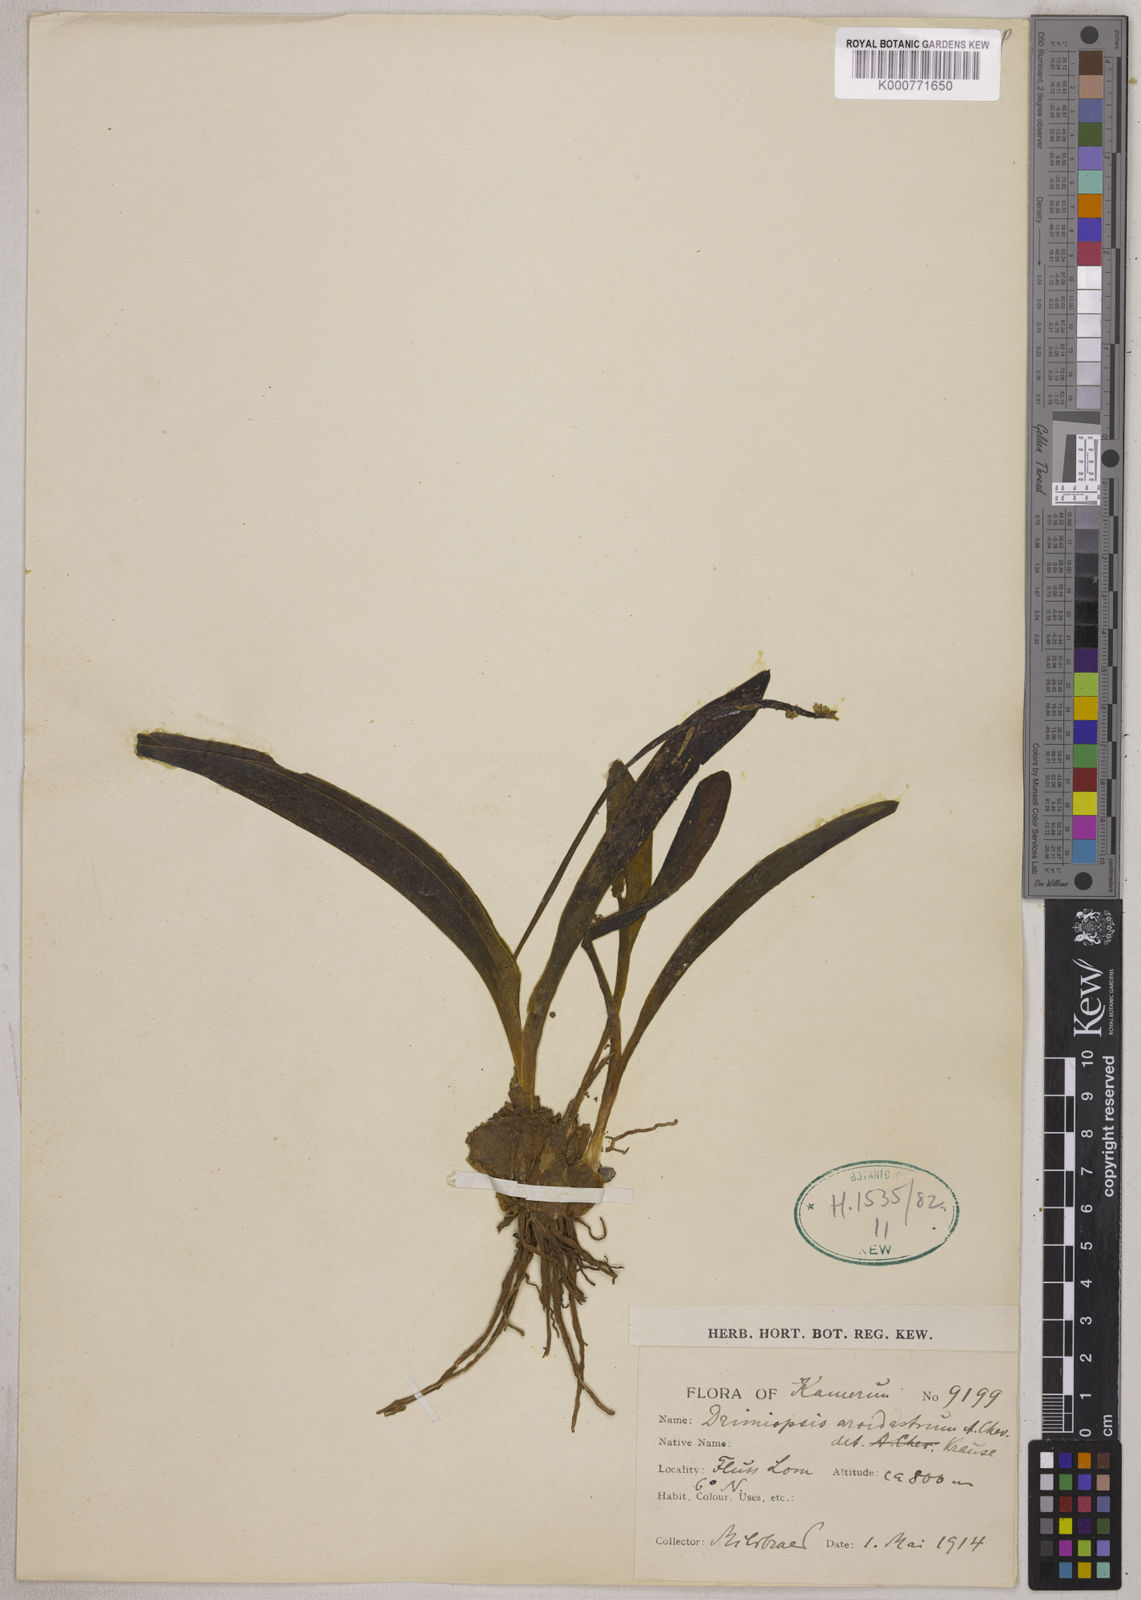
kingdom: Plantae
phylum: Tracheophyta
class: Liliopsida
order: Asparagales
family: Asparagaceae
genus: Drimiopsis
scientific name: Drimiopsis barteri
